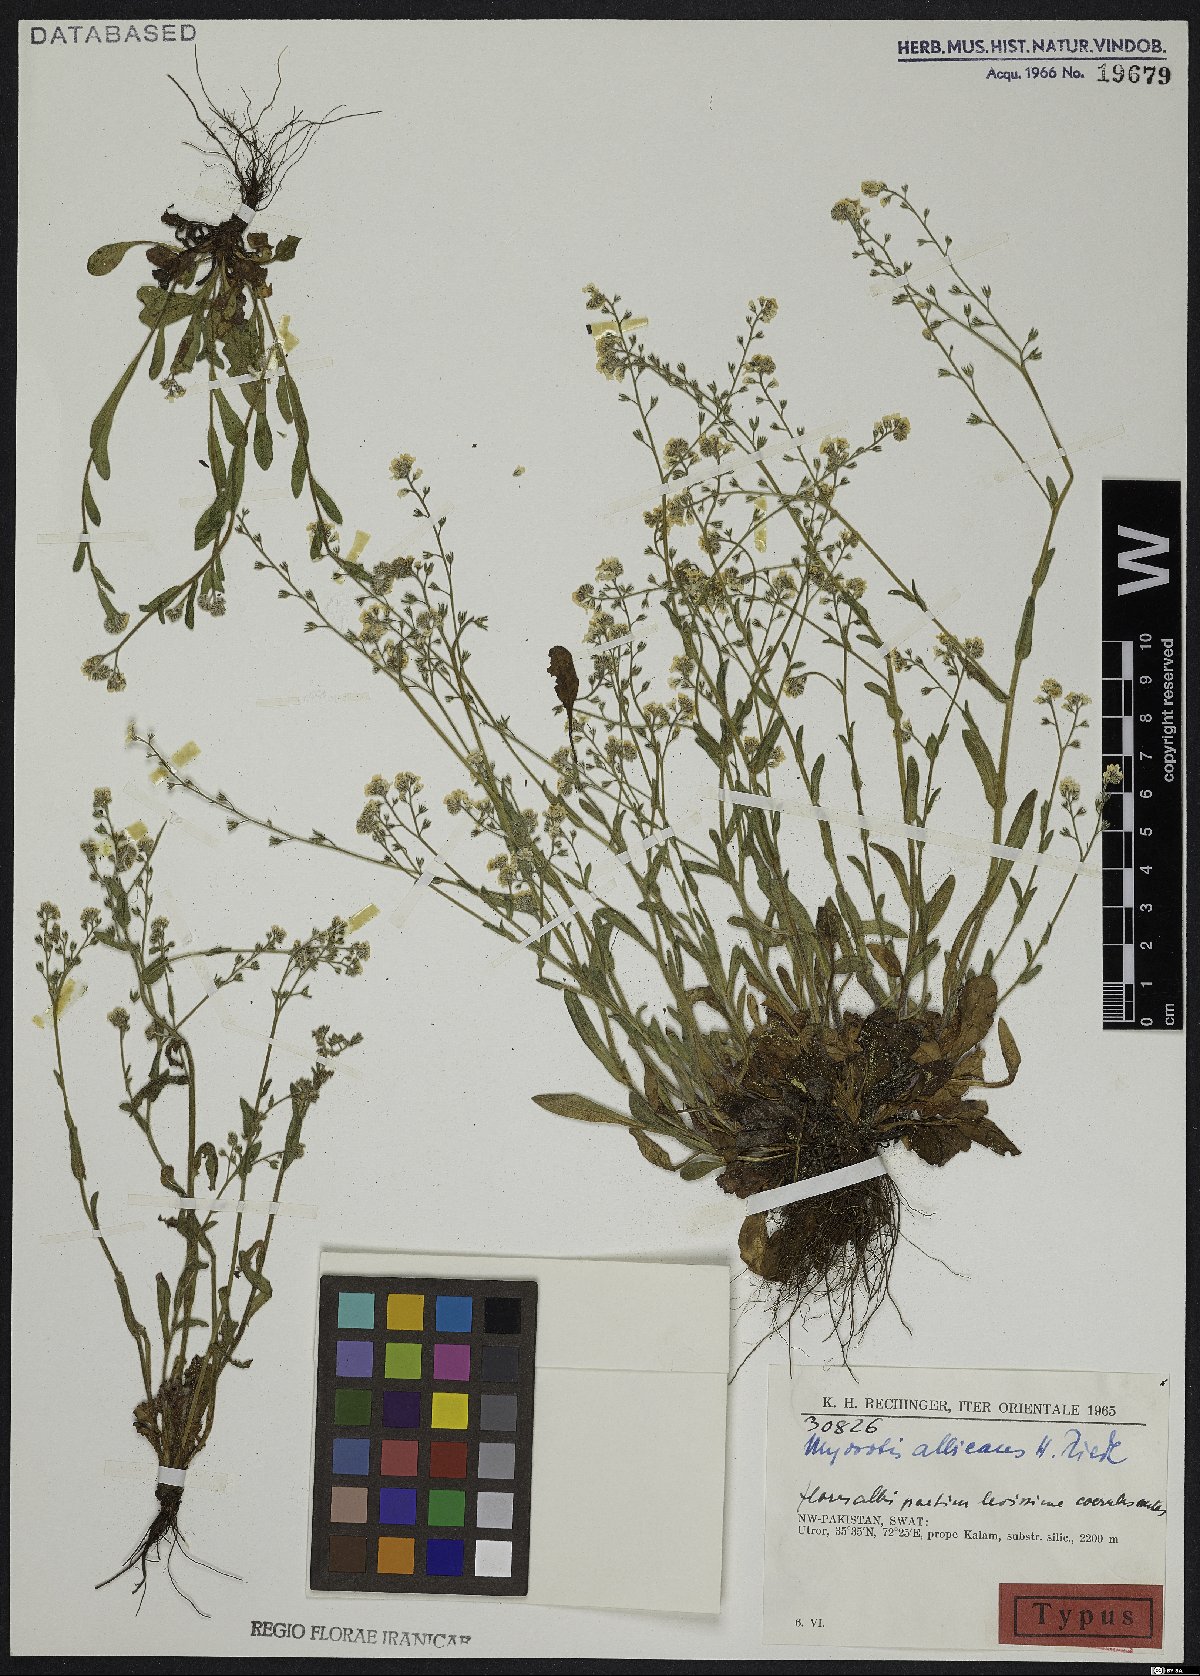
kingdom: Plantae
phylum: Tracheophyta
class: Magnoliopsida
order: Boraginales
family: Boraginaceae
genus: Myosotis
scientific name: Myosotis albicans
